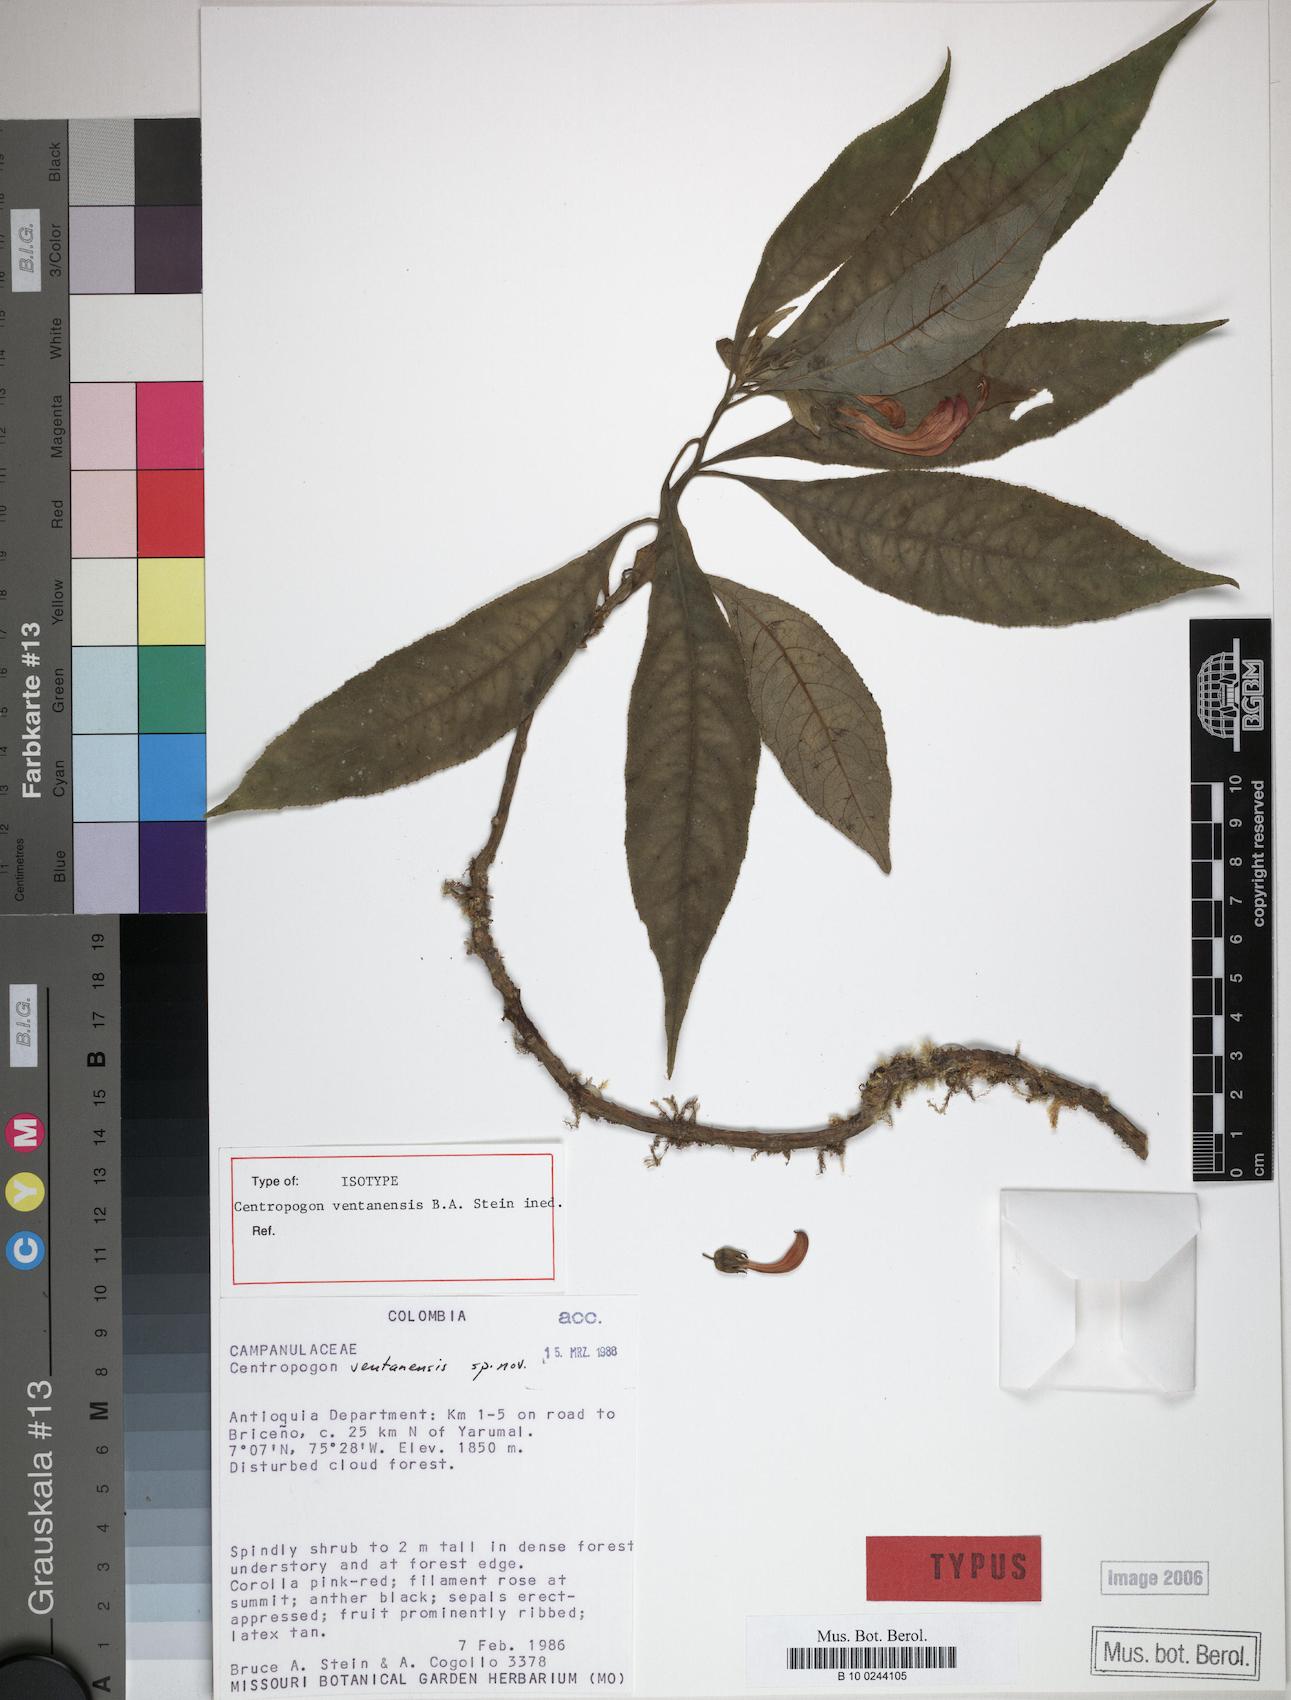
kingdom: Plantae
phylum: Tracheophyta
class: Magnoliopsida
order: Asterales
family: Campanulaceae
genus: Centropogon
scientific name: Centropogon
